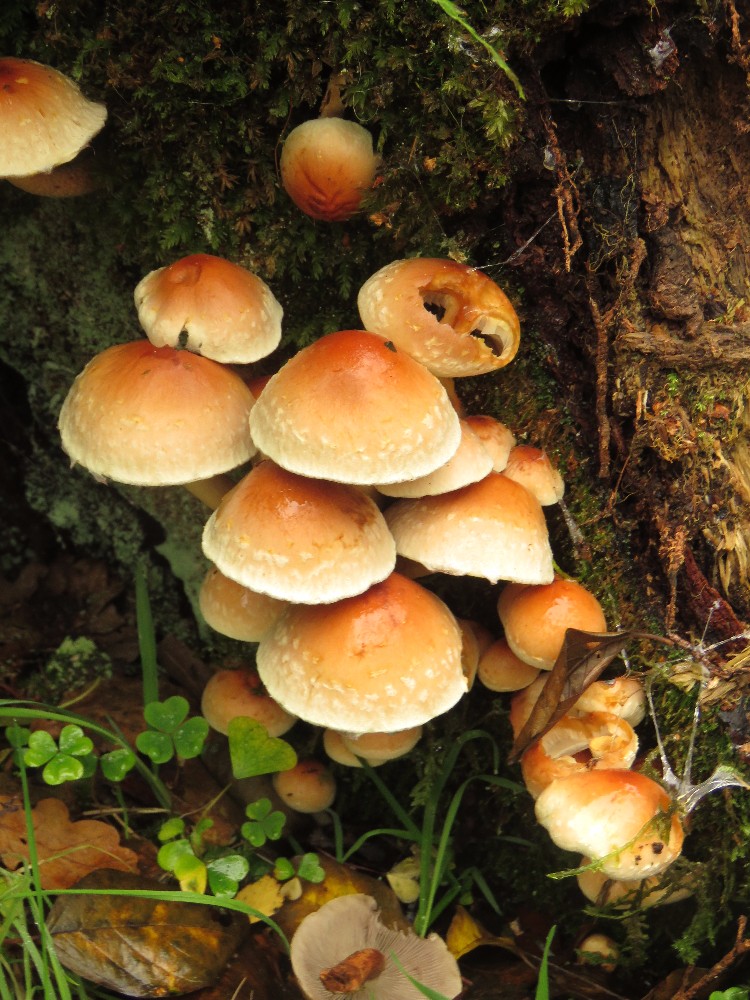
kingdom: Fungi
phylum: Basidiomycota
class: Agaricomycetes
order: Agaricales
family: Strophariaceae
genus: Hypholoma
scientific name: Hypholoma lateritium
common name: teglrød svovlhat
